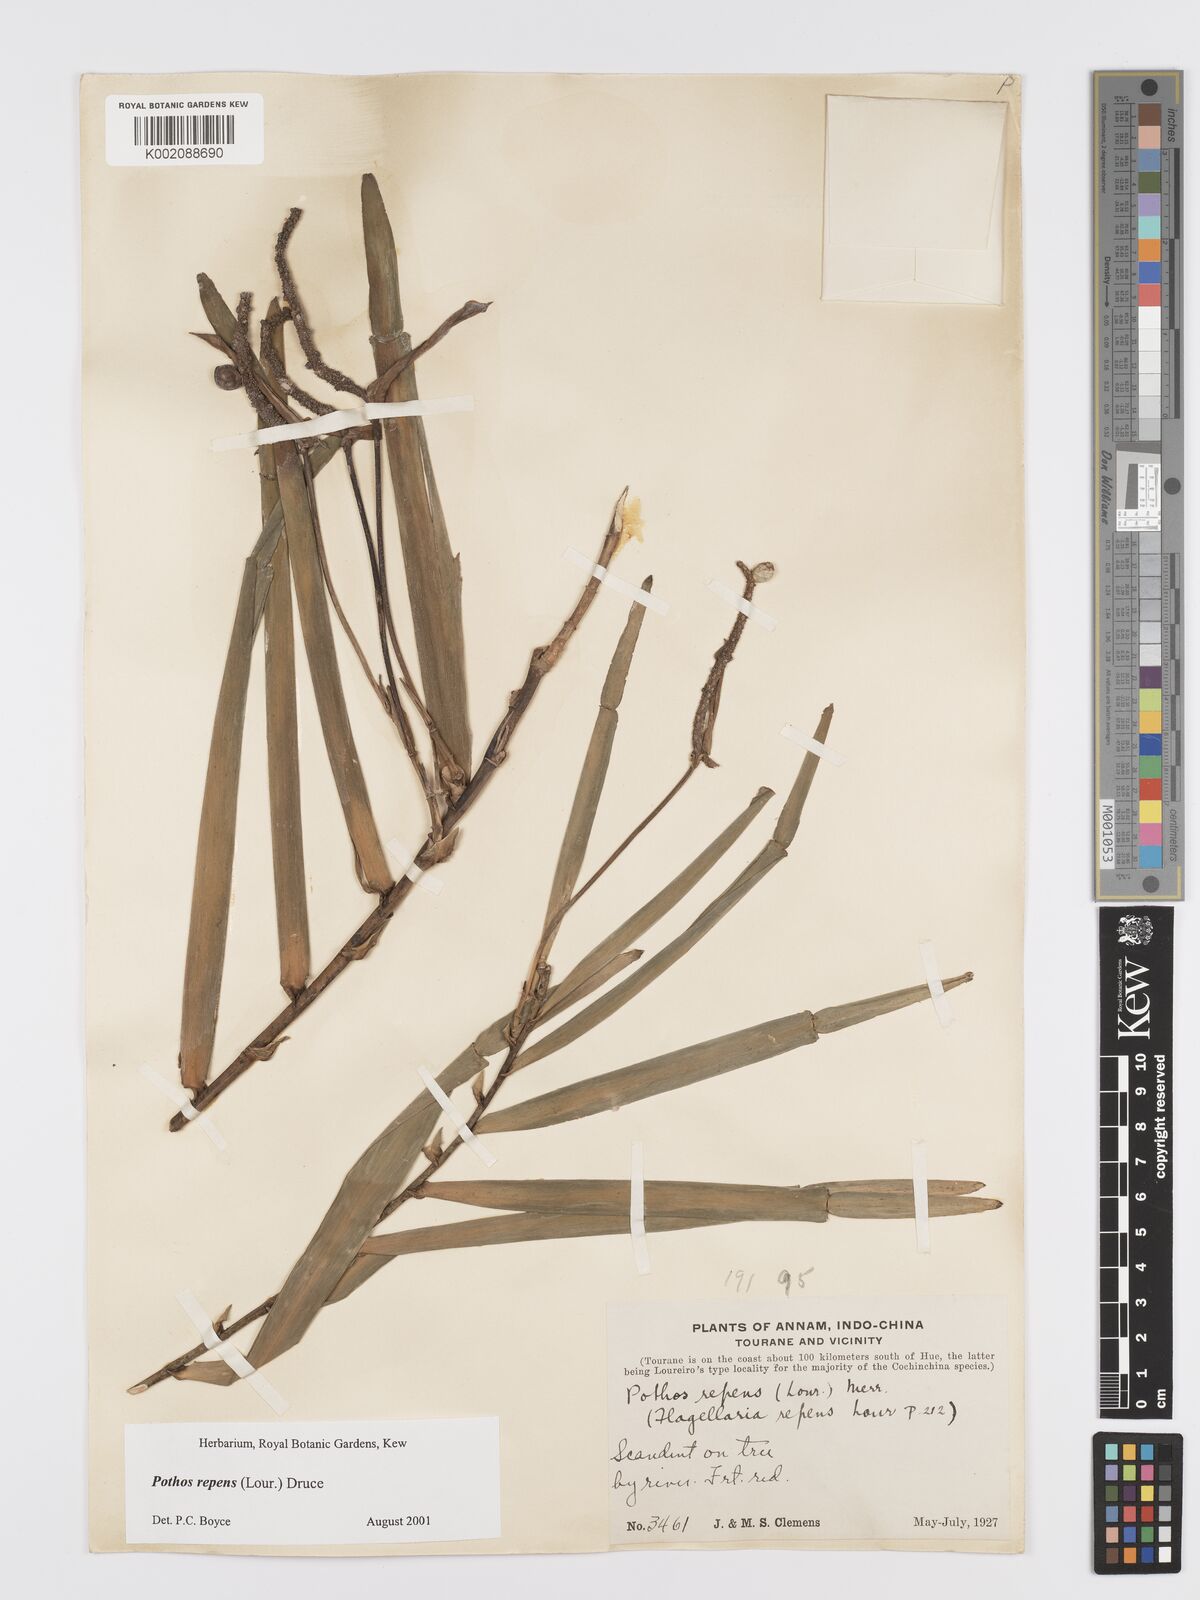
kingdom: Plantae
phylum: Tracheophyta
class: Liliopsida
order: Alismatales
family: Araceae
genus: Pothos
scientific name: Pothos repens
